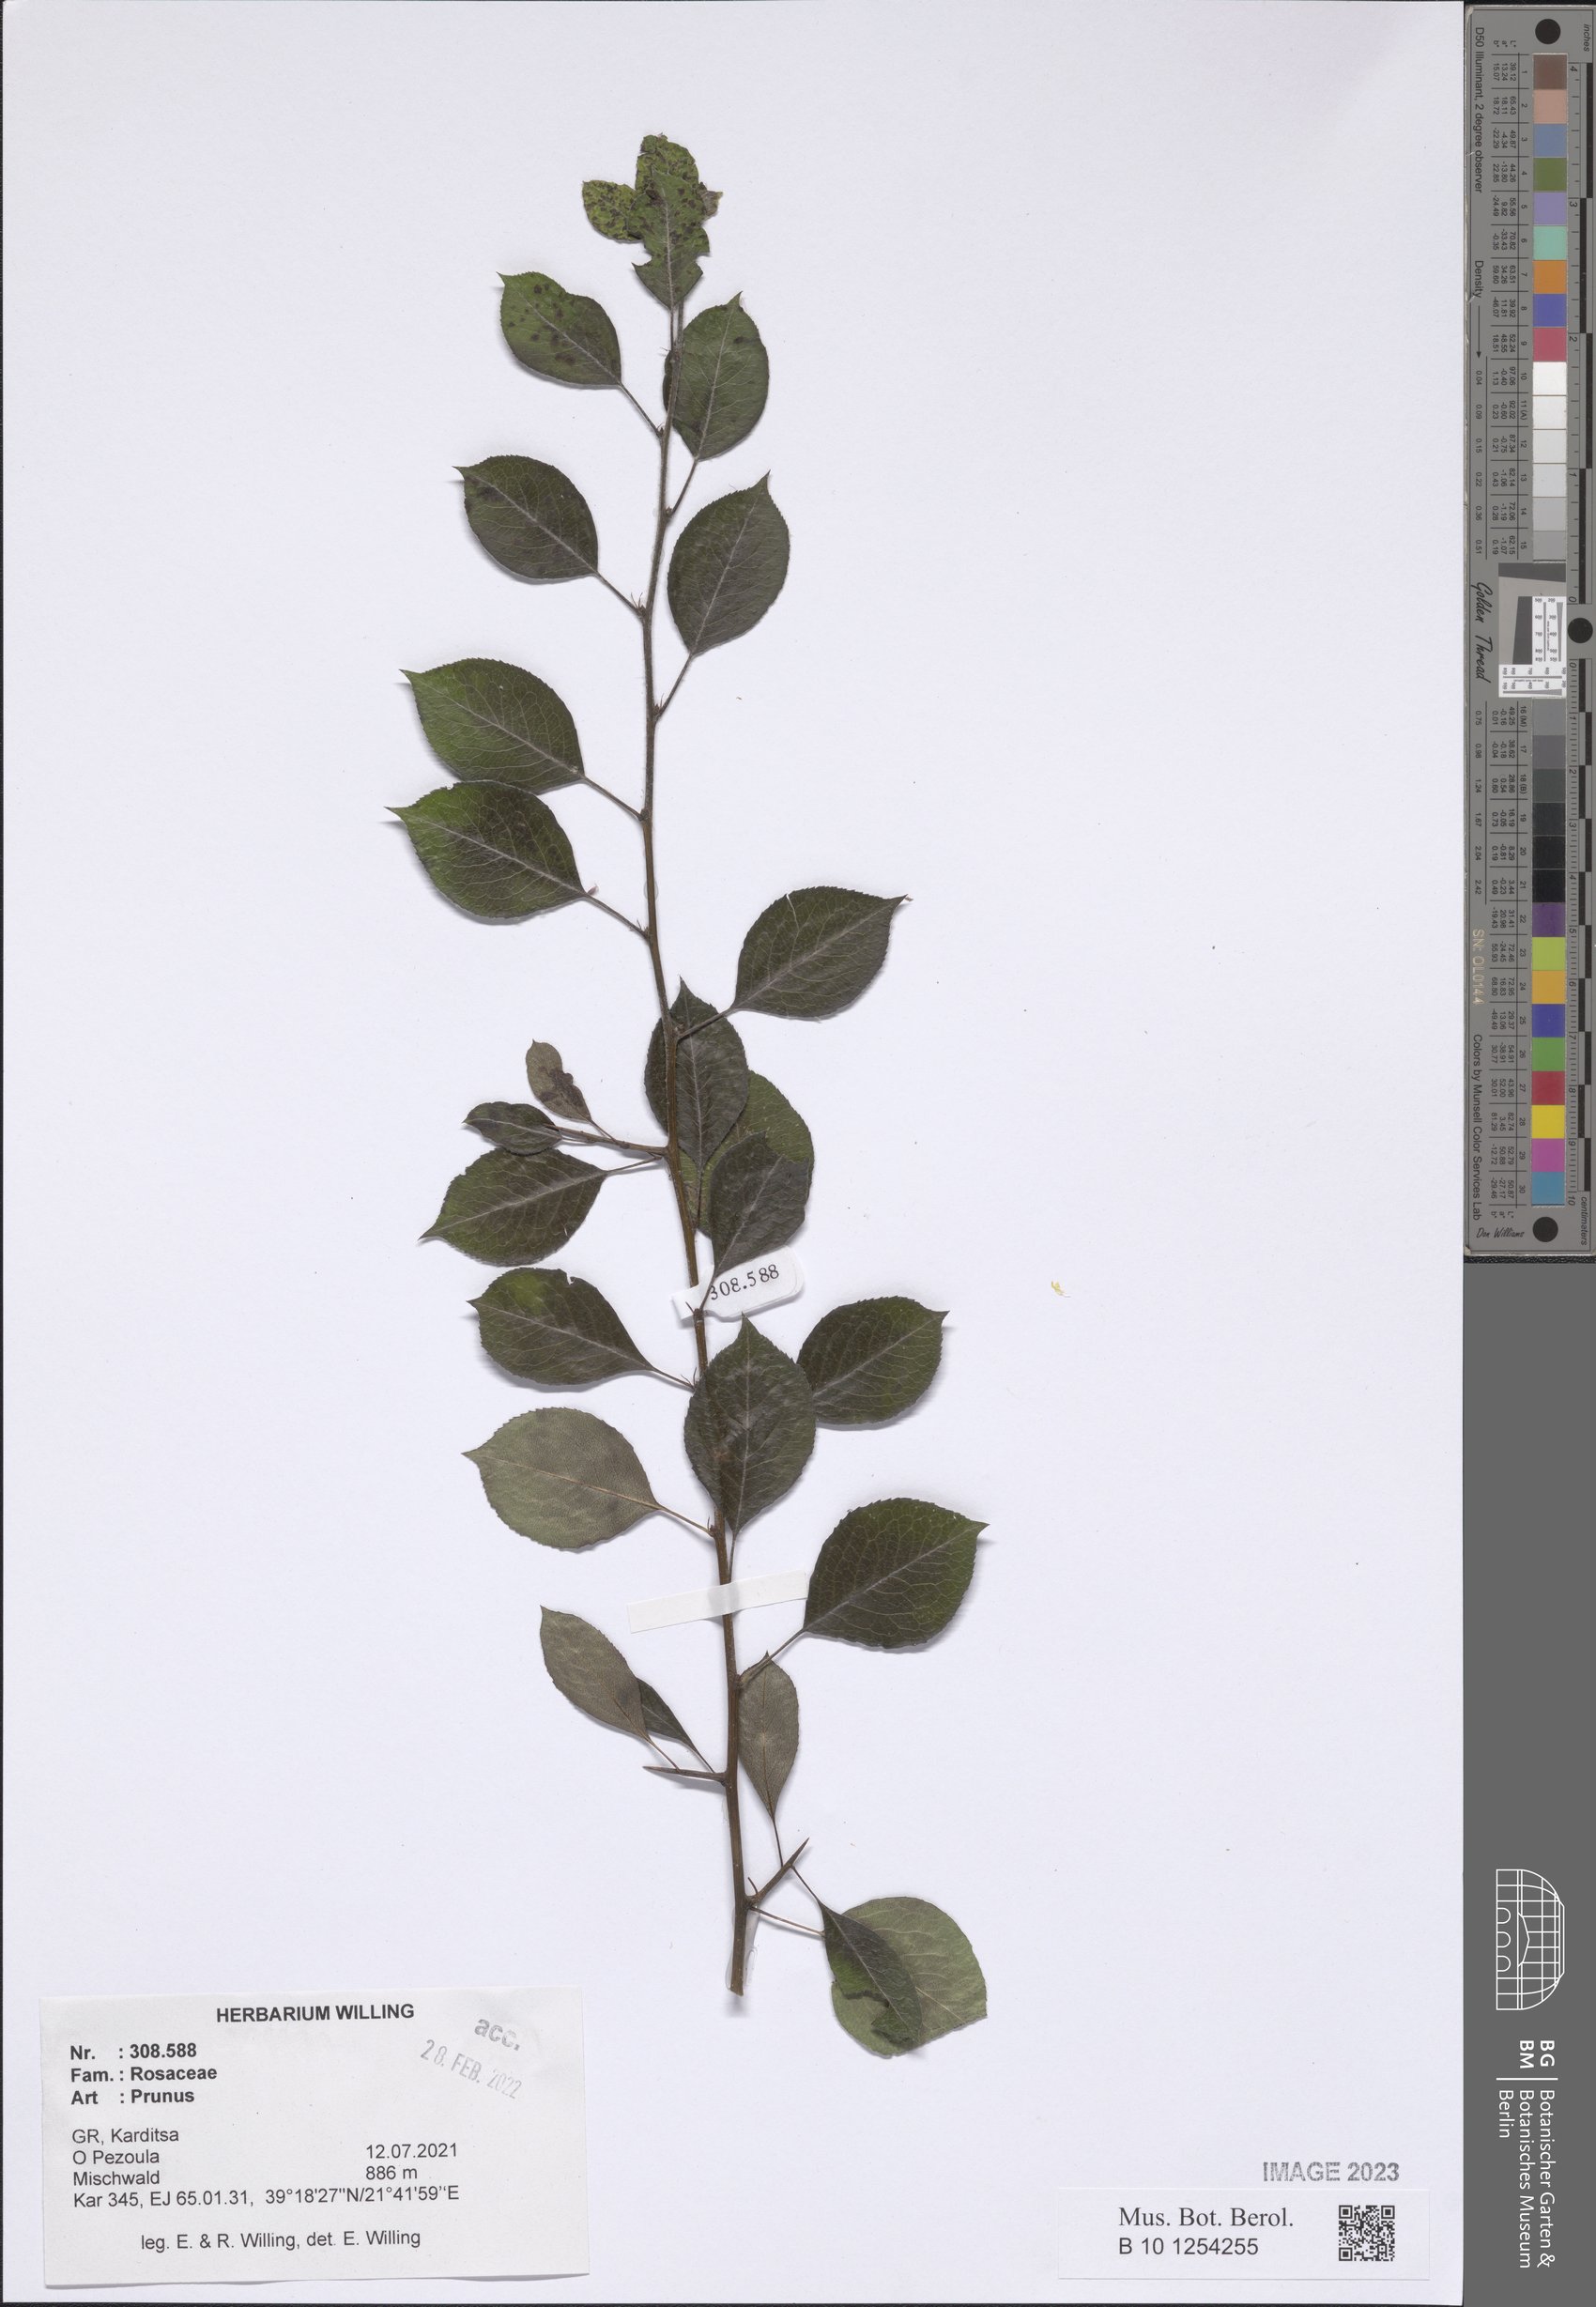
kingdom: Plantae
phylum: Tracheophyta
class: Magnoliopsida
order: Rosales
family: Rosaceae
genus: Prunus
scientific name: Prunus
